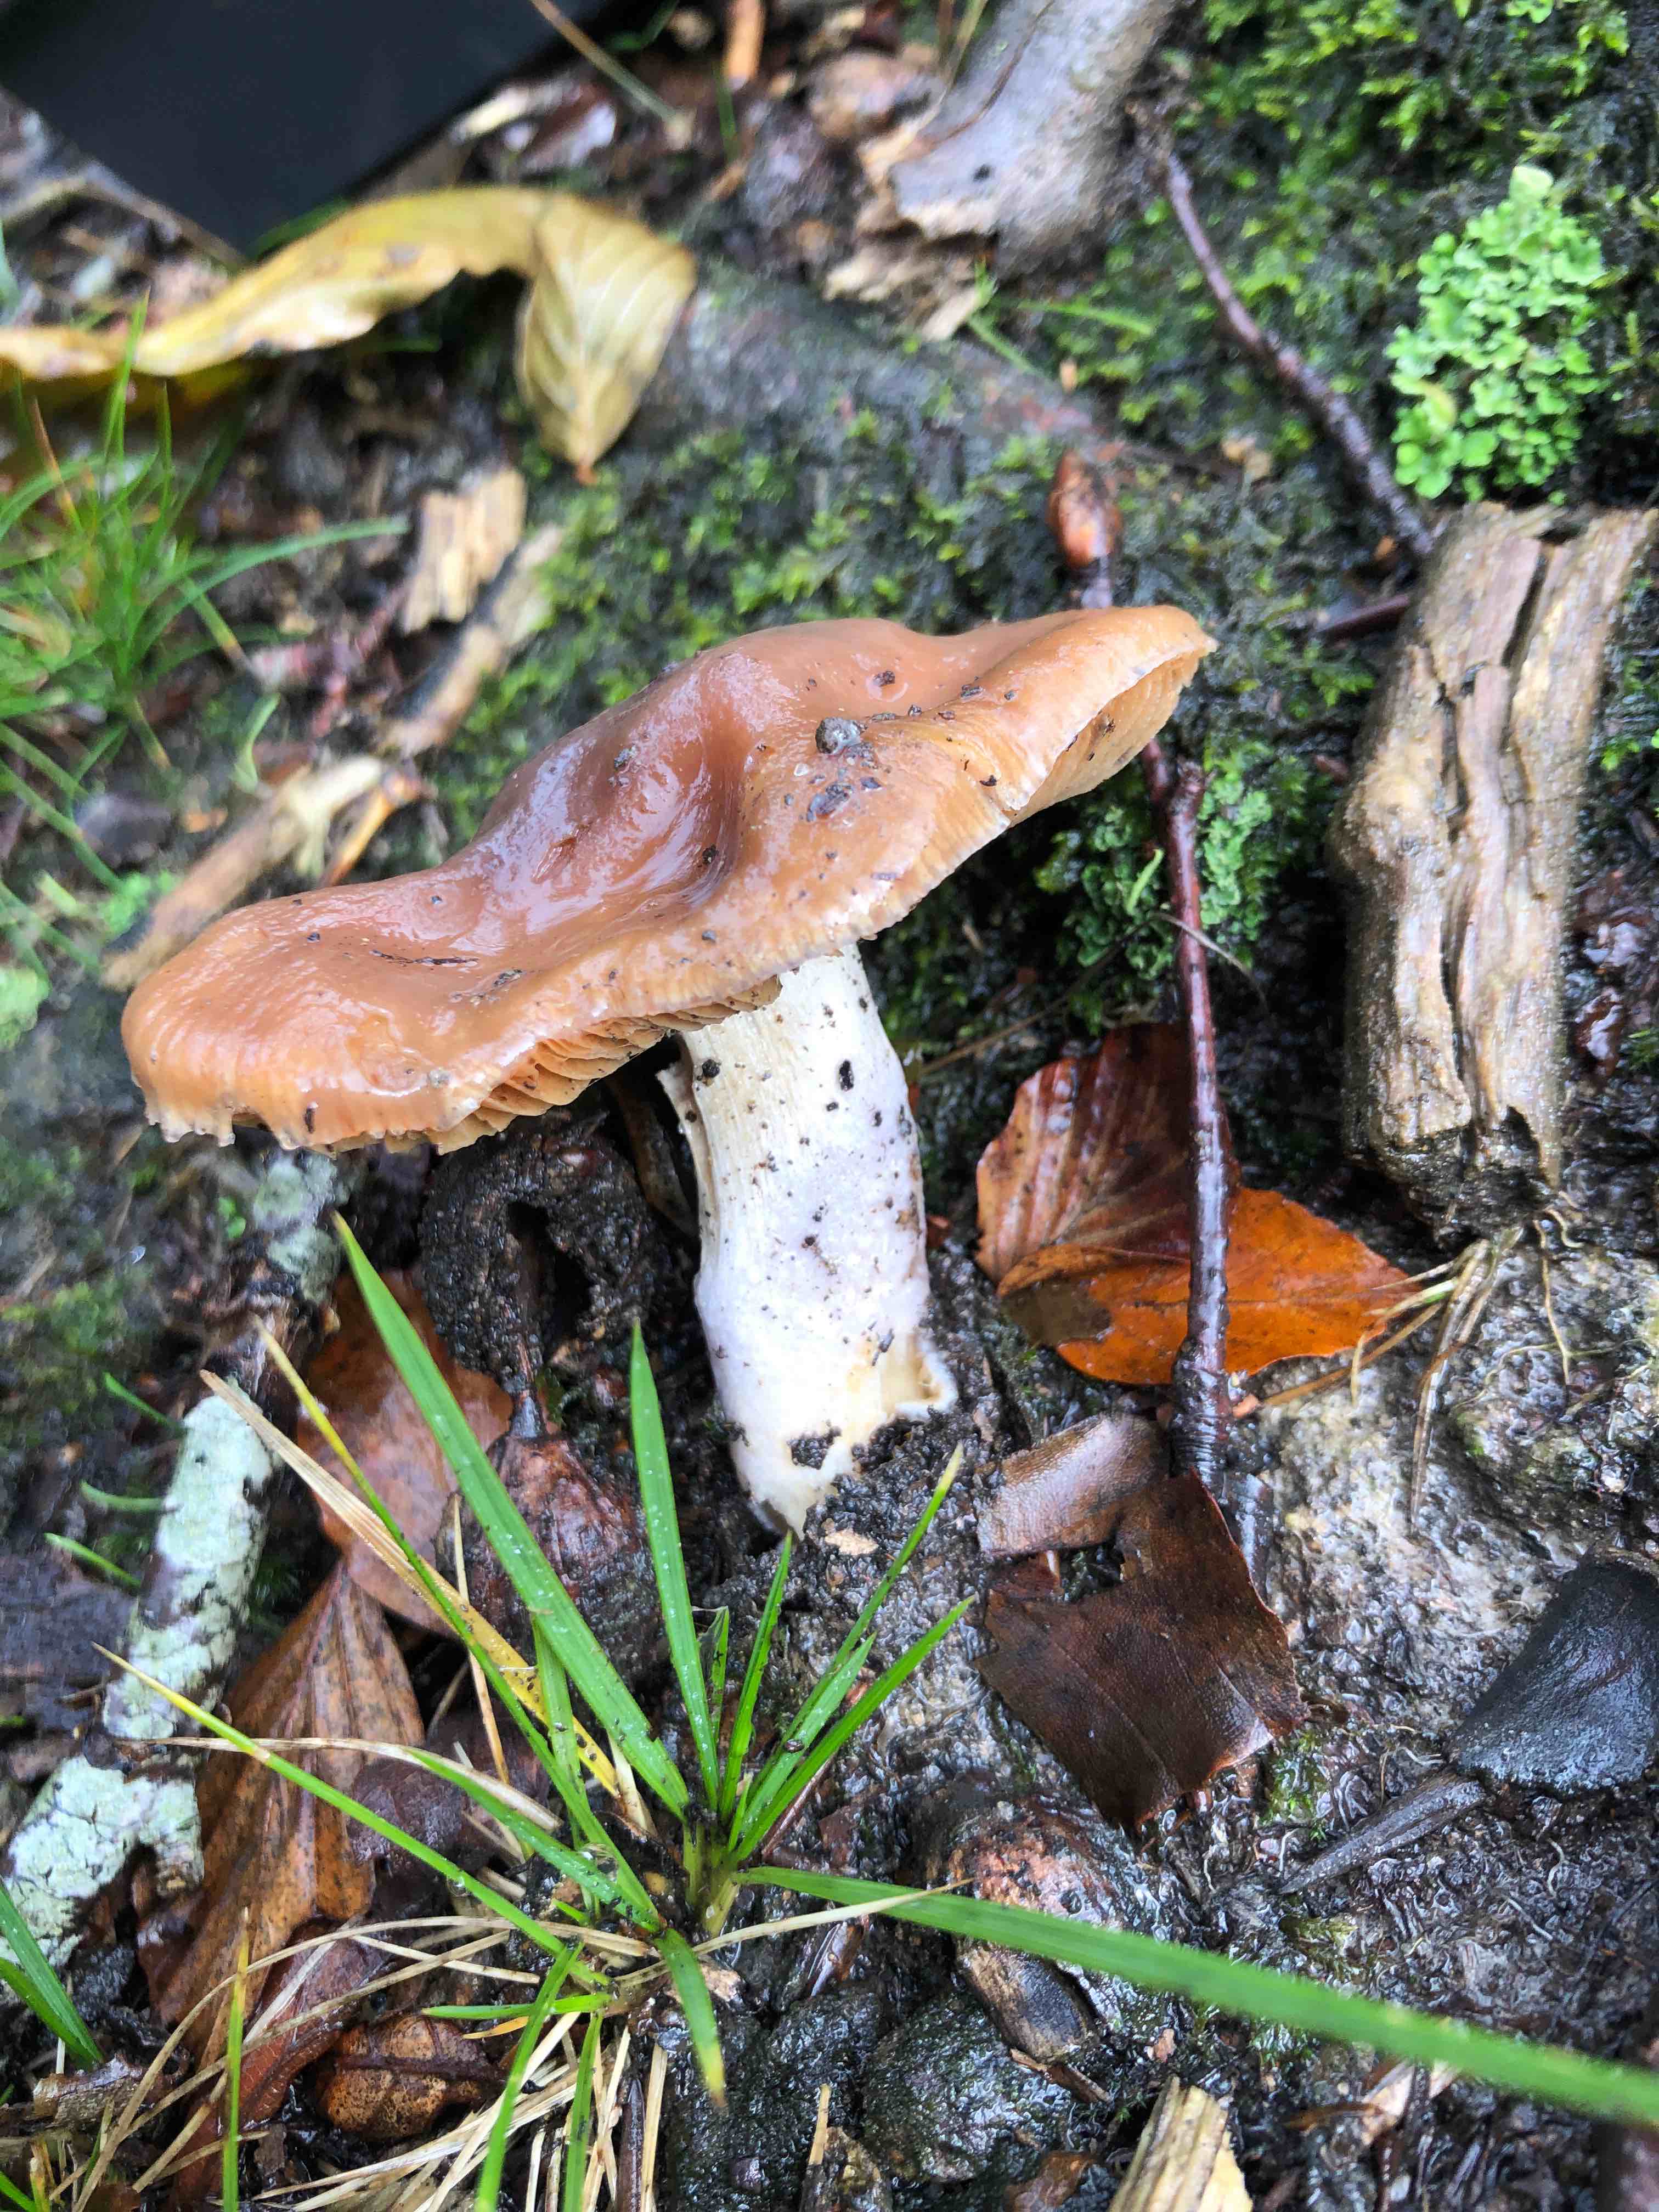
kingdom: Fungi
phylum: Basidiomycota
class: Agaricomycetes
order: Agaricales
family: Cortinariaceae
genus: Cortinarius
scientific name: Cortinarius elatior
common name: høj slørhat
